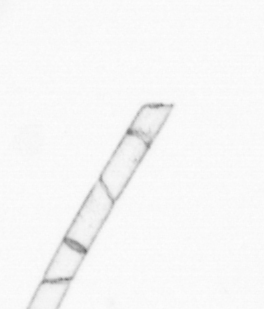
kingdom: Chromista
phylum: Ochrophyta
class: Bacillariophyceae
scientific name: Bacillariophyceae
